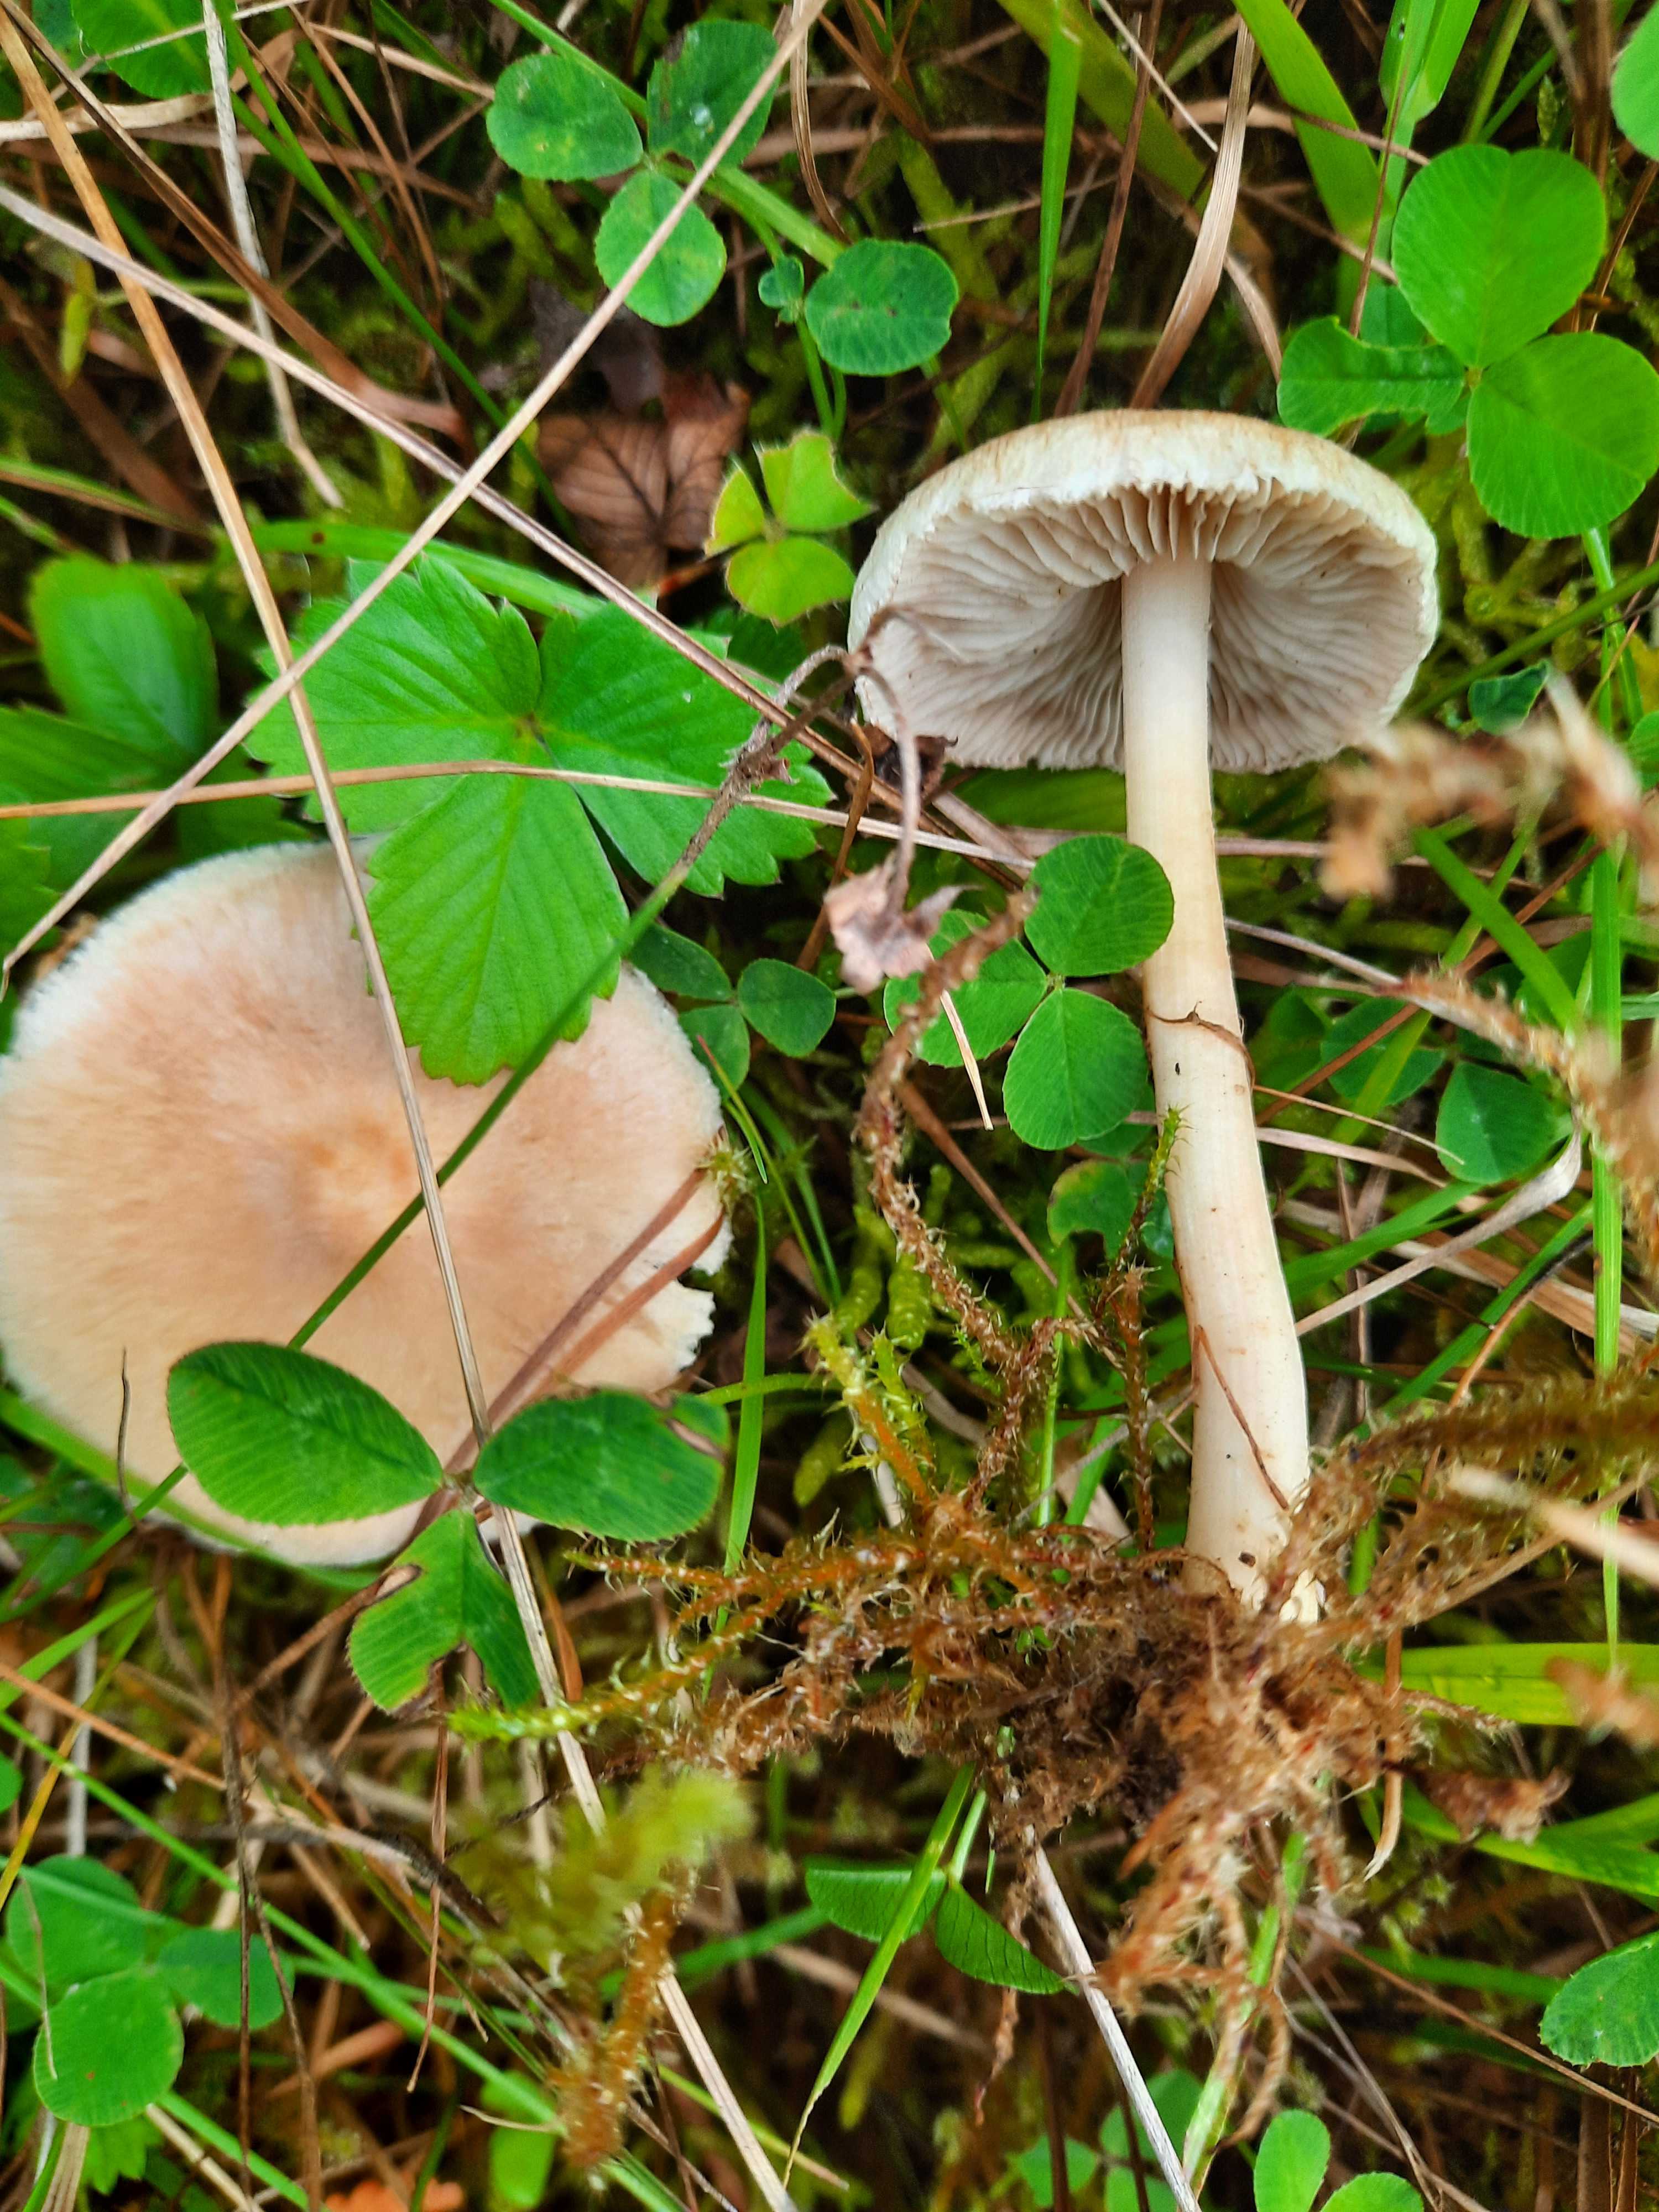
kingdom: Fungi
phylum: Basidiomycota
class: Agaricomycetes
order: Agaricales
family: Inocybaceae
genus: Inocybe
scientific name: Inocybe
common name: trævlhat
